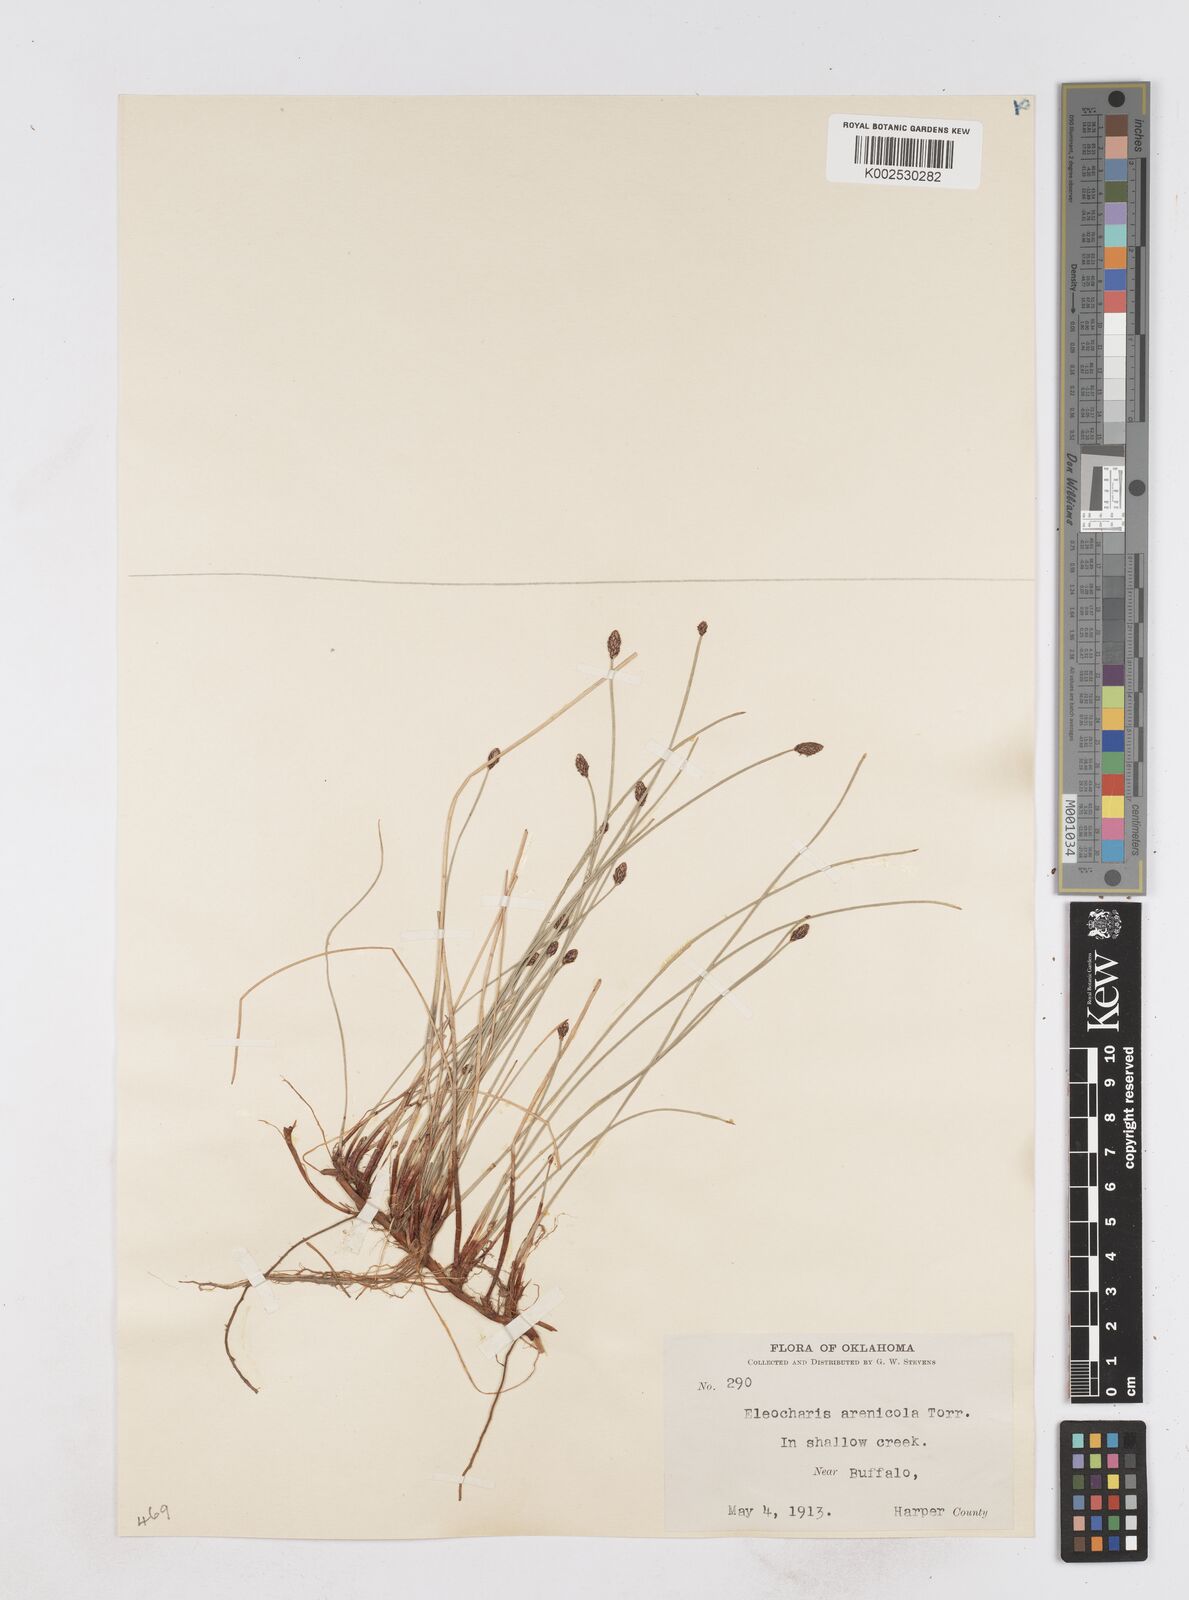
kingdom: Plantae
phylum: Tracheophyta
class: Liliopsida
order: Poales
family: Cyperaceae
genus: Eleocharis
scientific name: Eleocharis montevidensis
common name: Sand spike-rush
